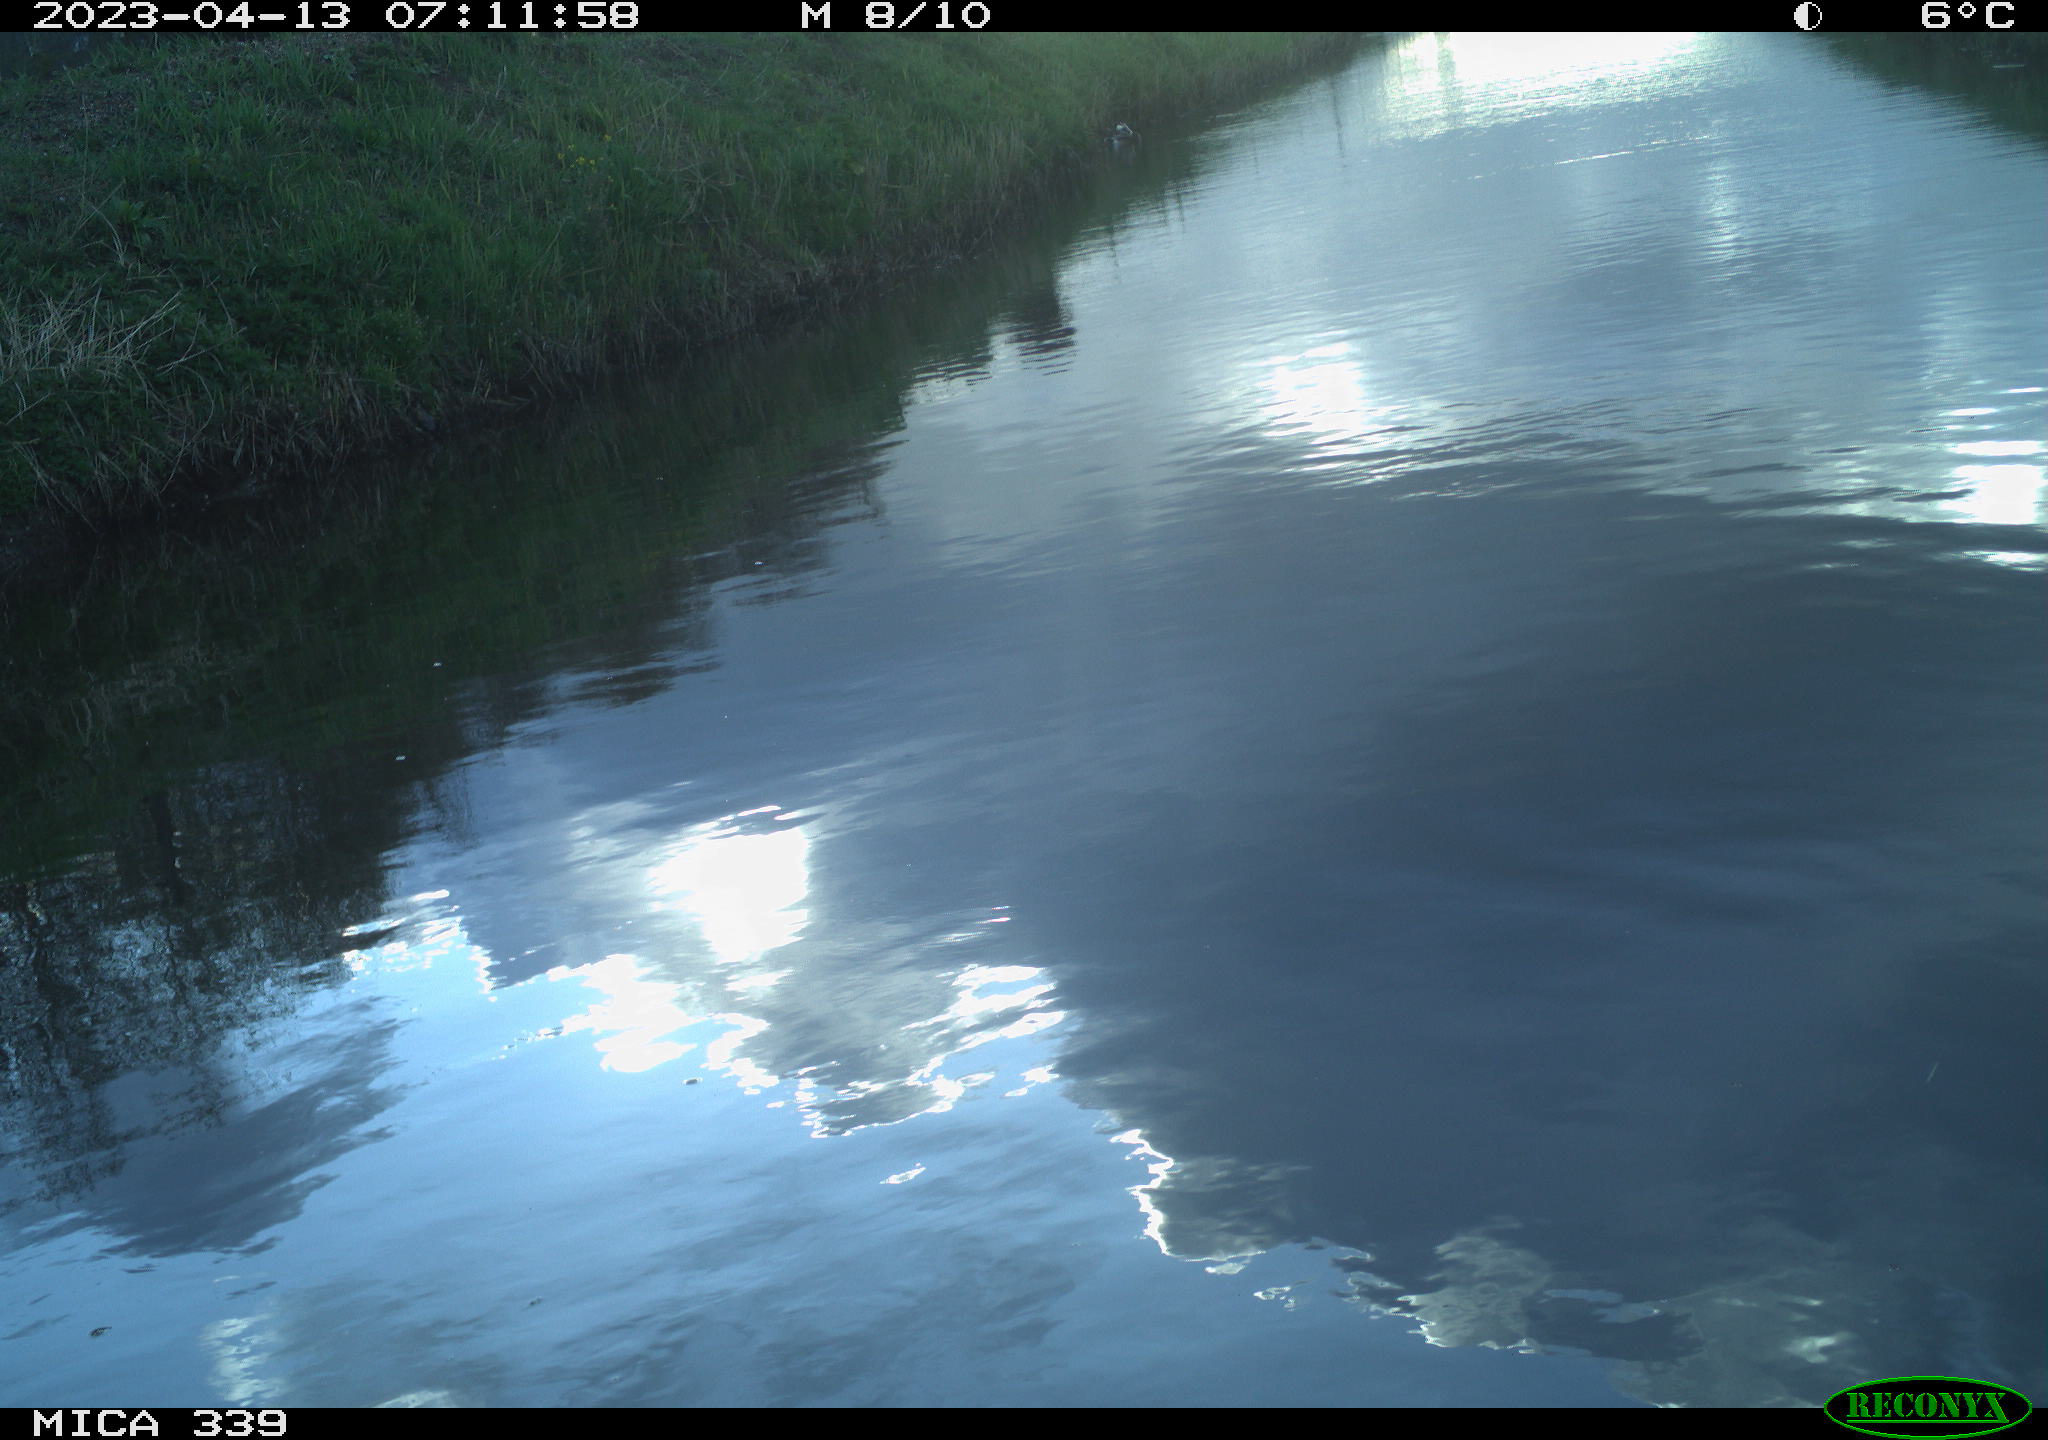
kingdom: Animalia
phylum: Chordata
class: Aves
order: Pelecaniformes
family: Ardeidae
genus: Ardea
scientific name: Ardea
